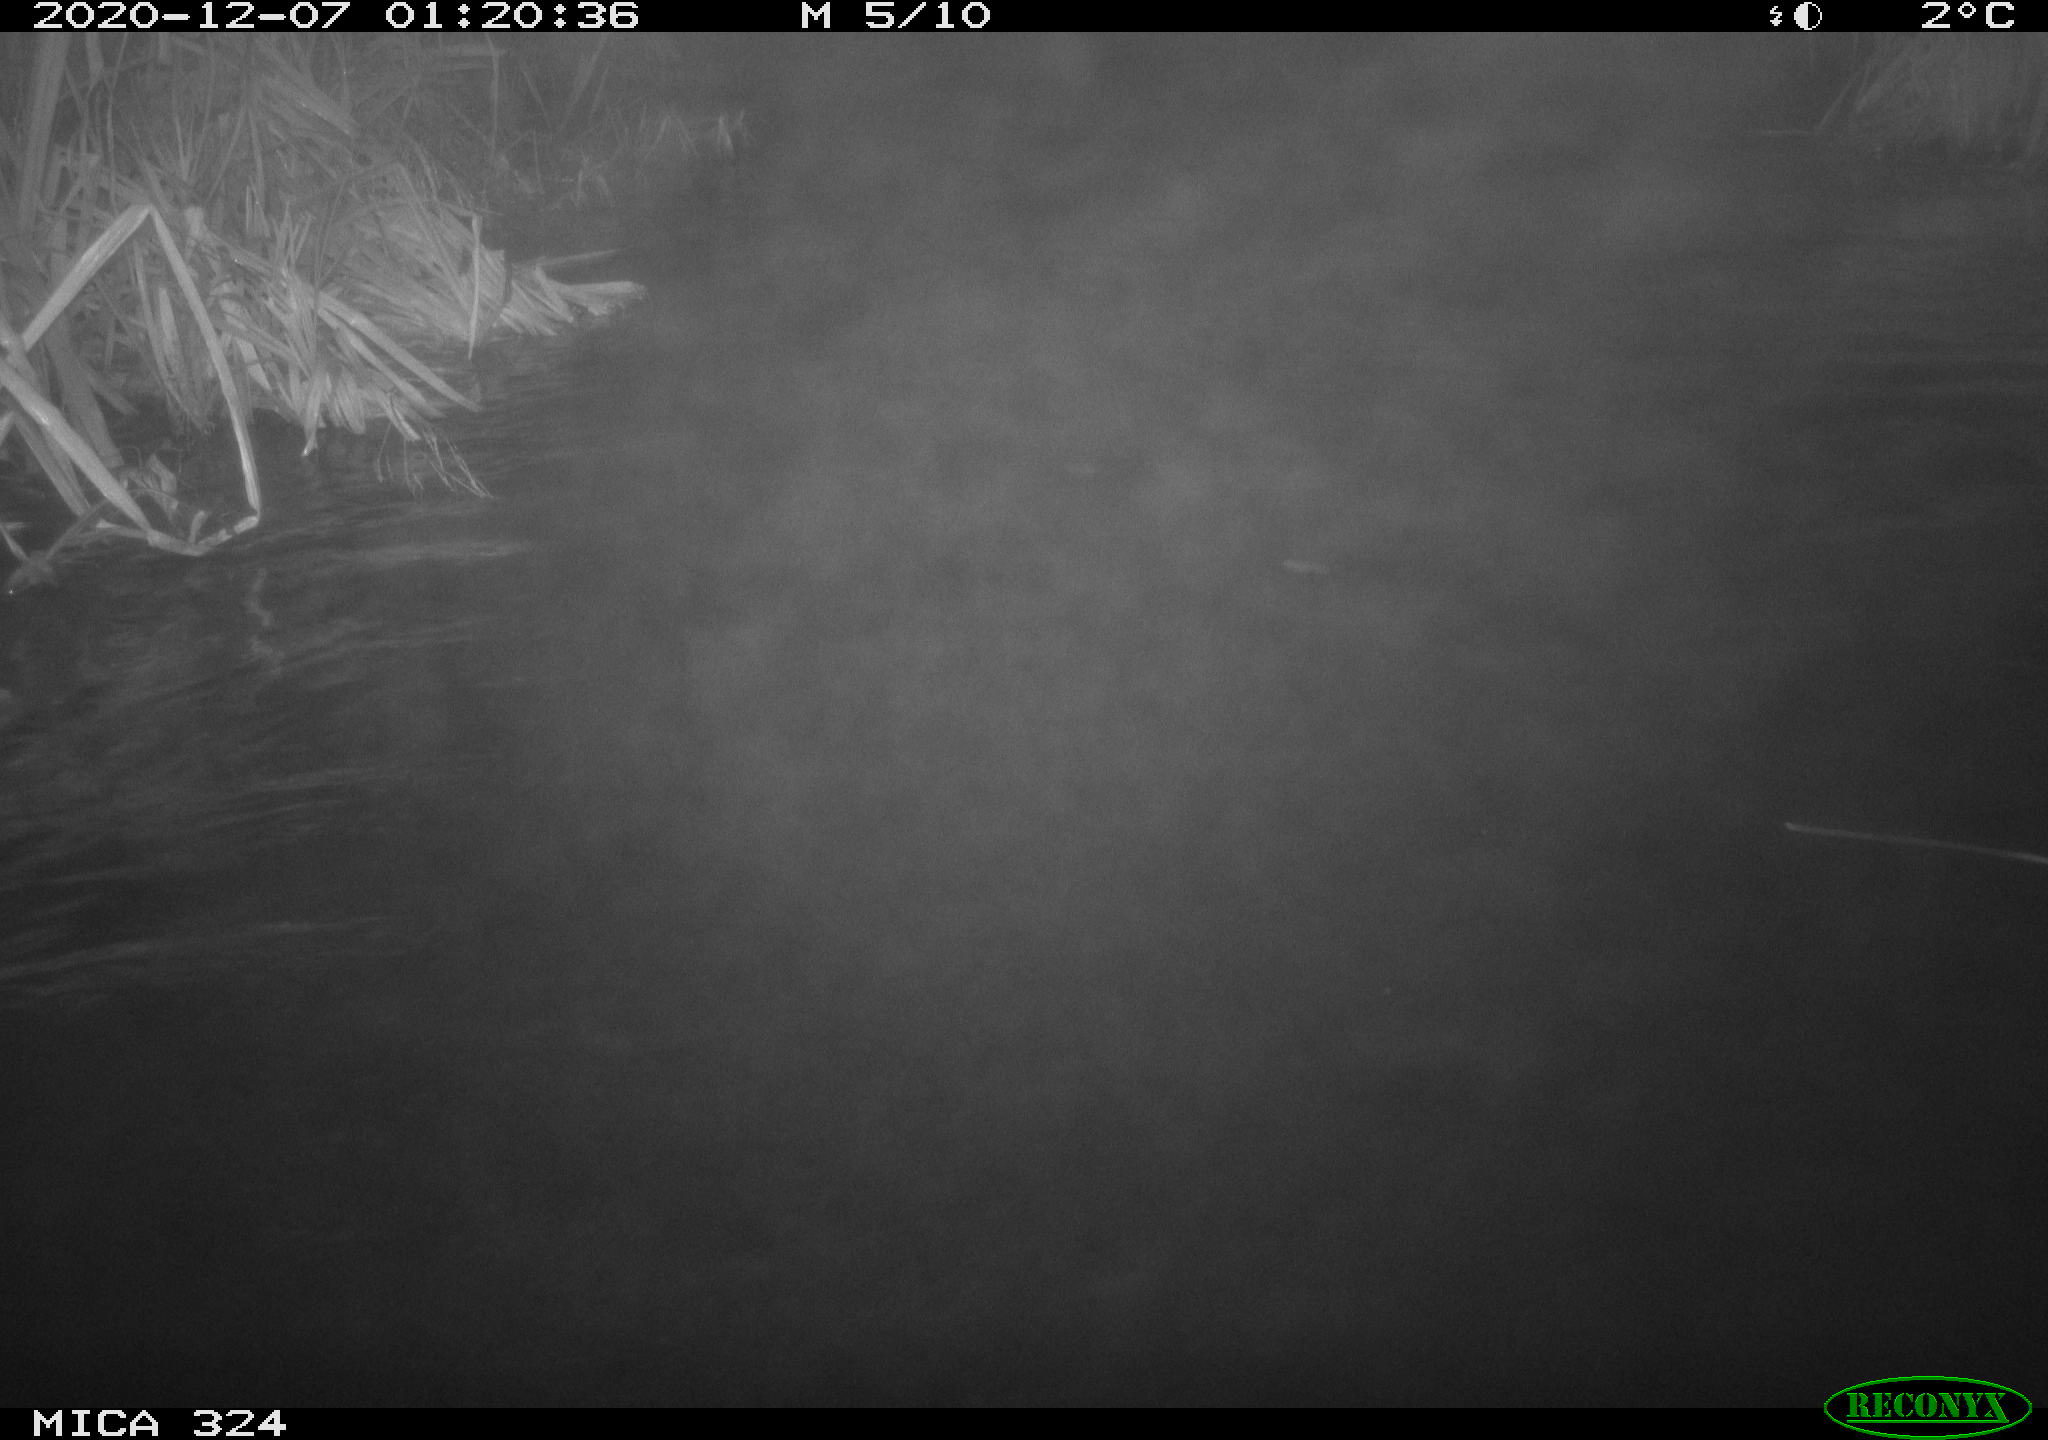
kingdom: Animalia
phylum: Chordata
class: Mammalia
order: Rodentia
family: Myocastoridae
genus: Myocastor
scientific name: Myocastor coypus
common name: Coypu
